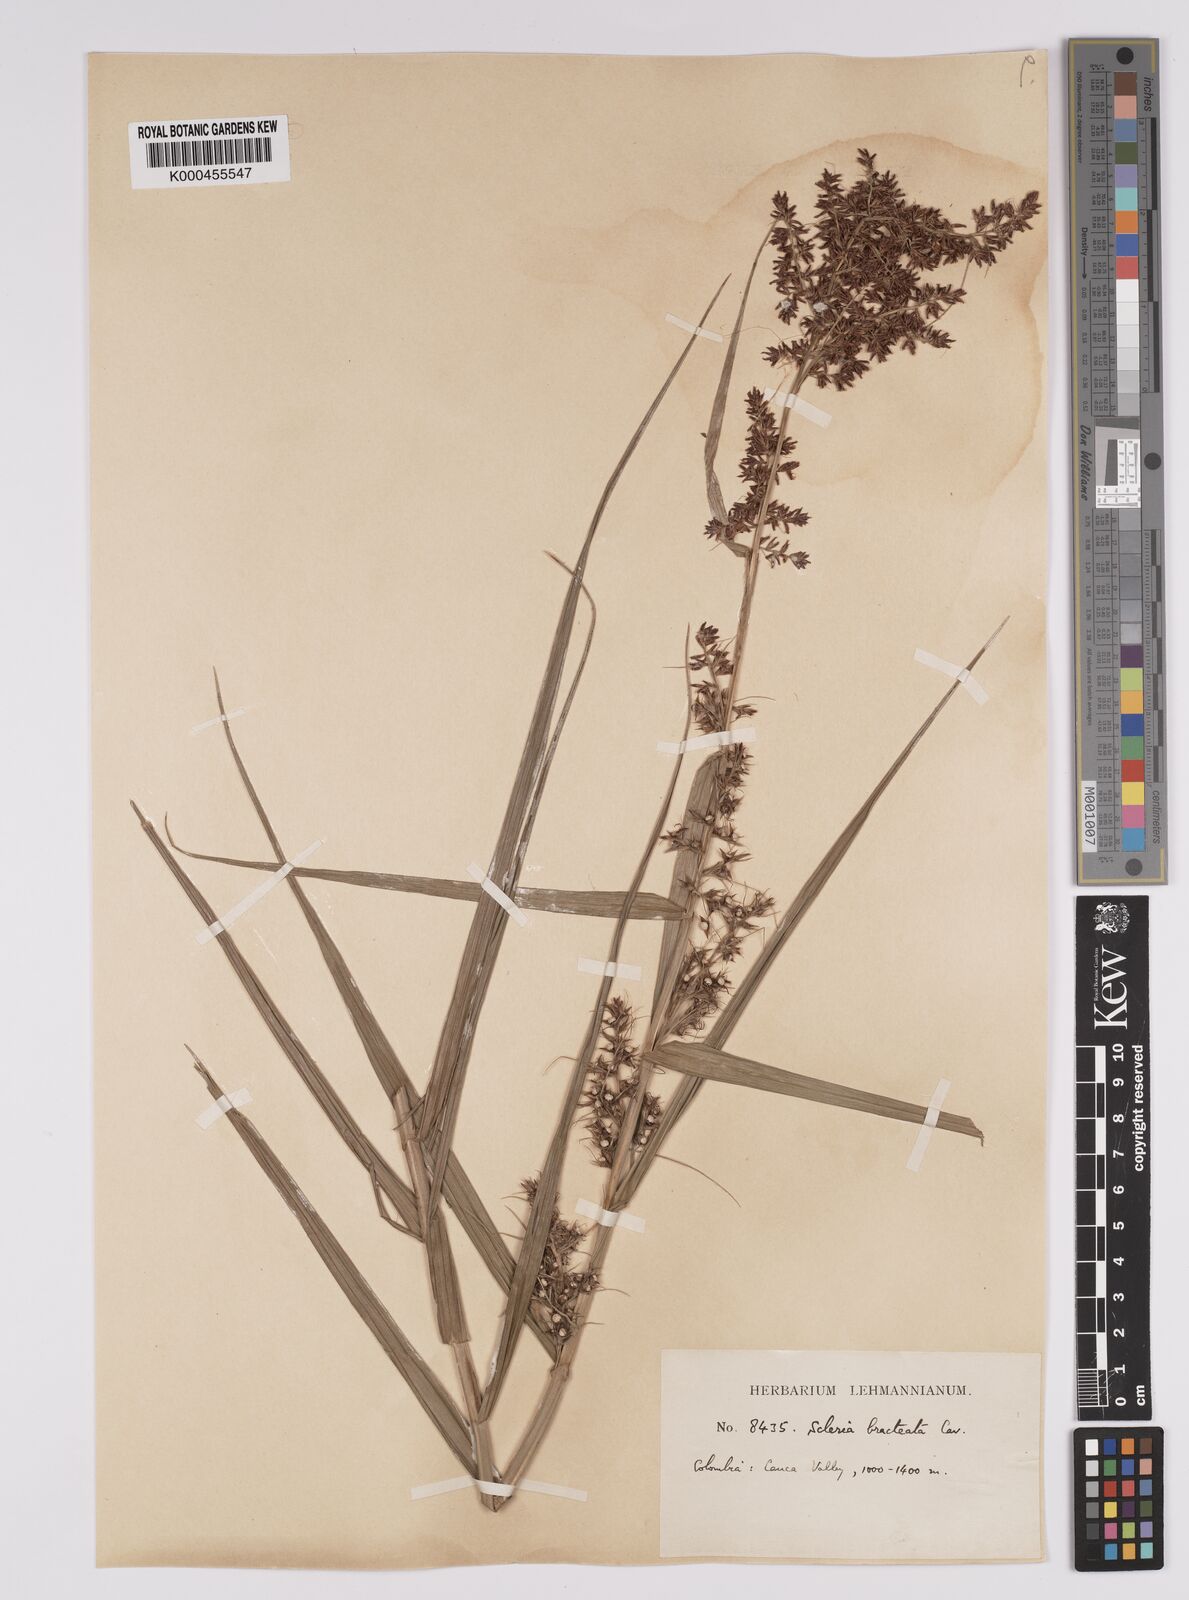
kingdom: Plantae
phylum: Tracheophyta
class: Liliopsida
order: Poales
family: Cyperaceae
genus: Scleria
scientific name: Scleria bracteata
